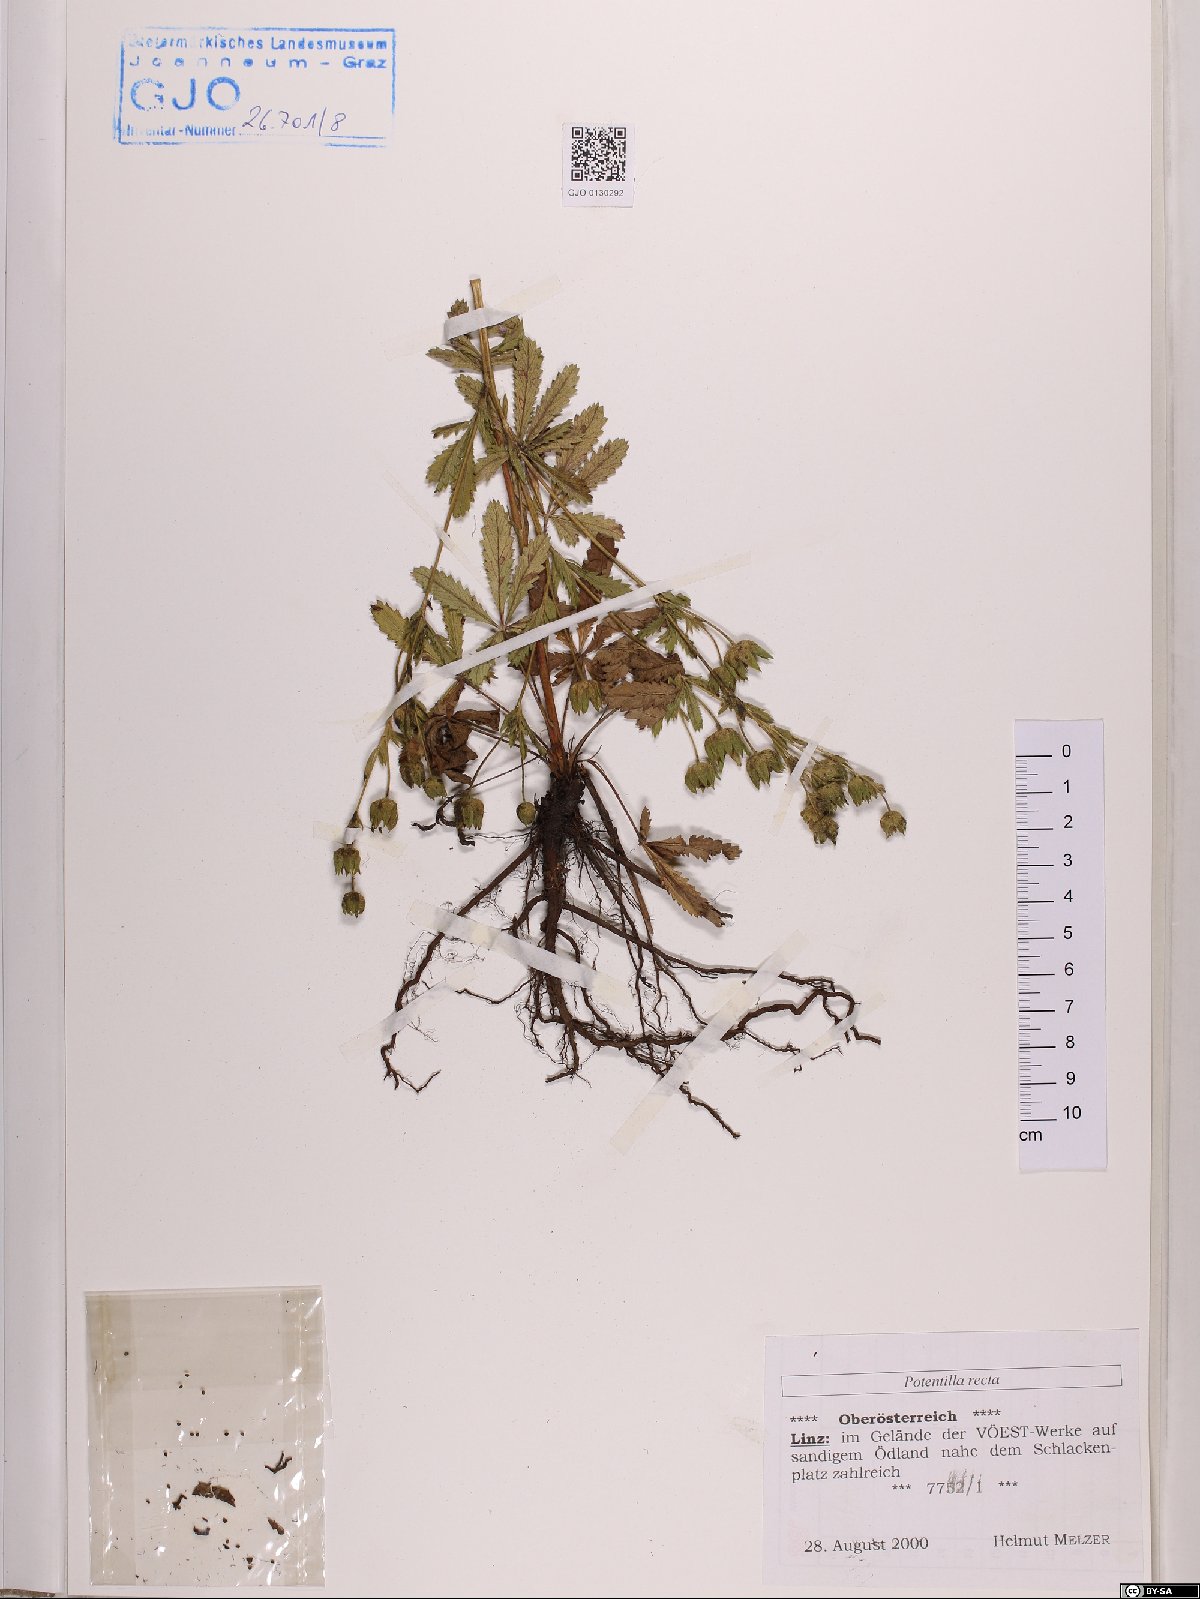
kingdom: Plantae
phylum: Tracheophyta
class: Magnoliopsida
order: Rosales
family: Rosaceae
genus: Potentilla
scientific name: Potentilla recta
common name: Sulphur cinquefoil
